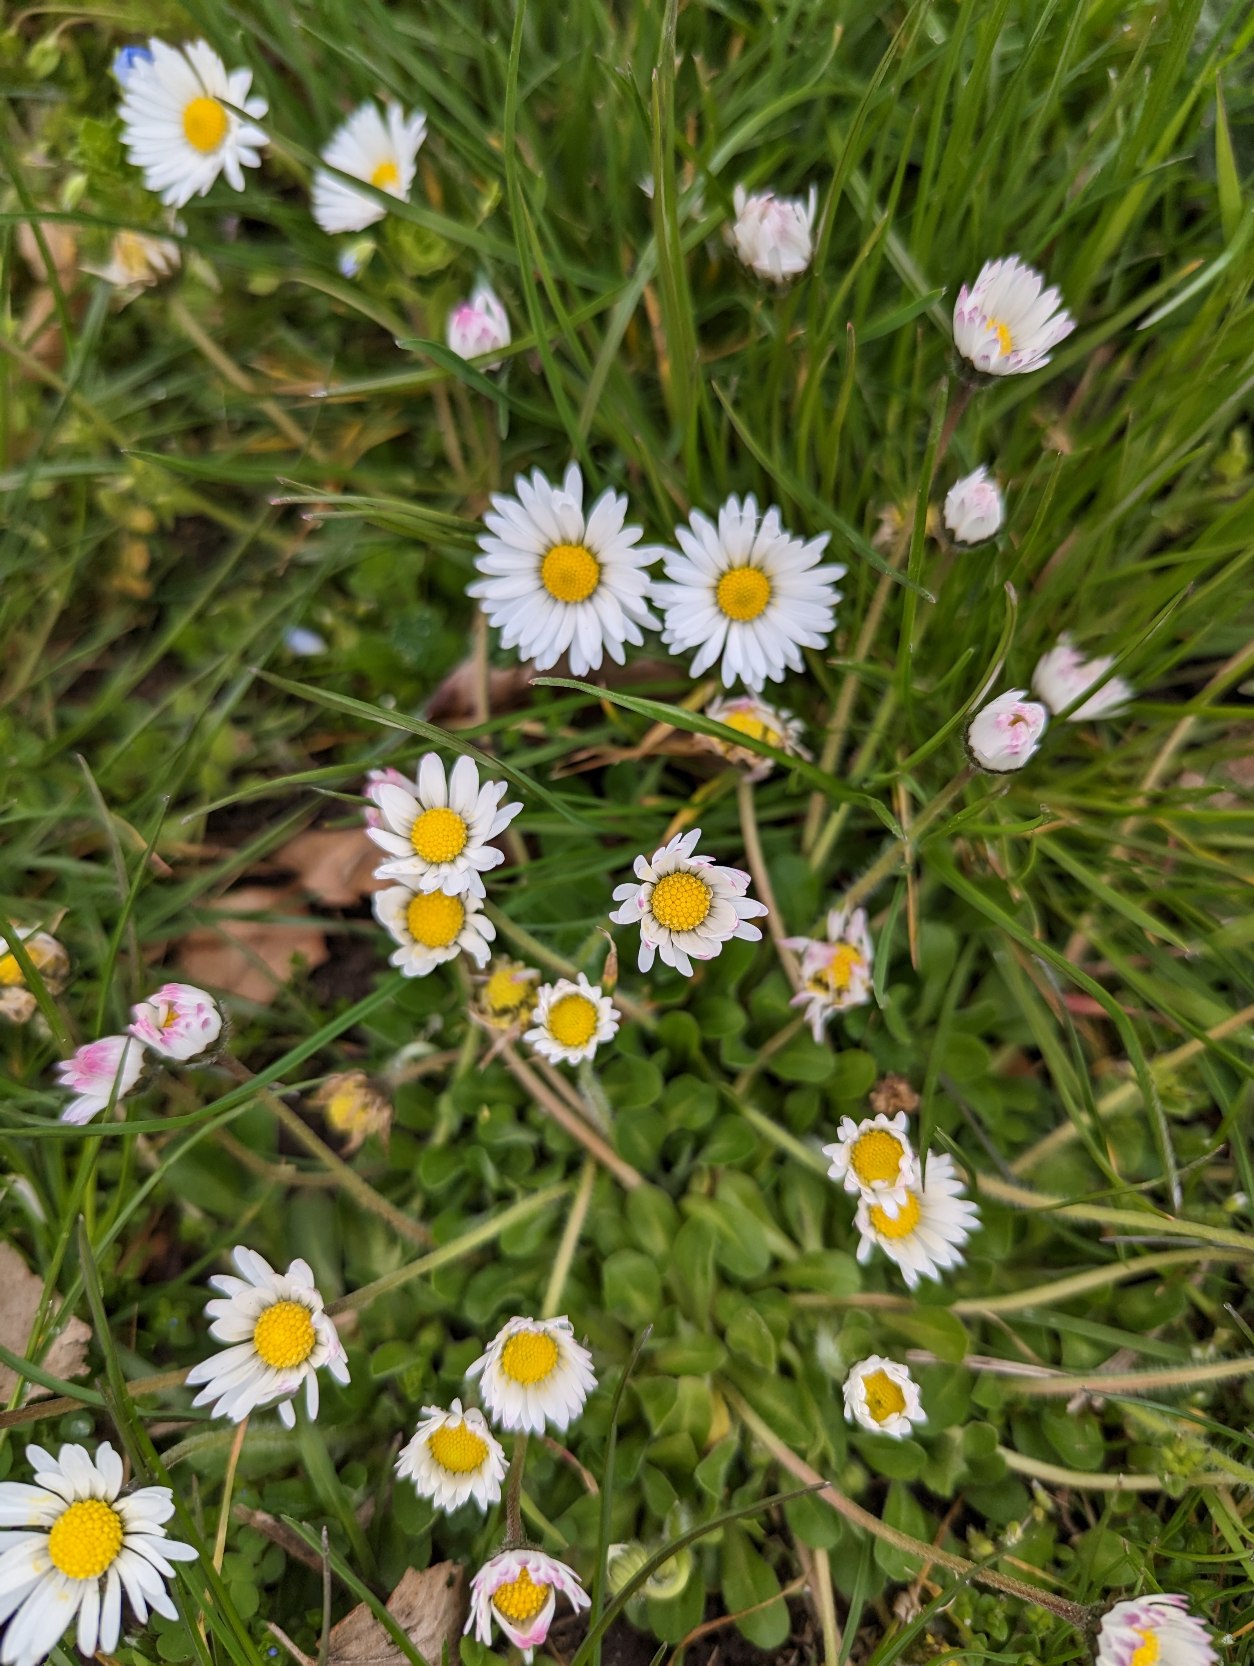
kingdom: Plantae
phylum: Tracheophyta
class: Magnoliopsida
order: Asterales
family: Asteraceae
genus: Bellis
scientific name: Bellis perennis
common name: Tusindfryd
